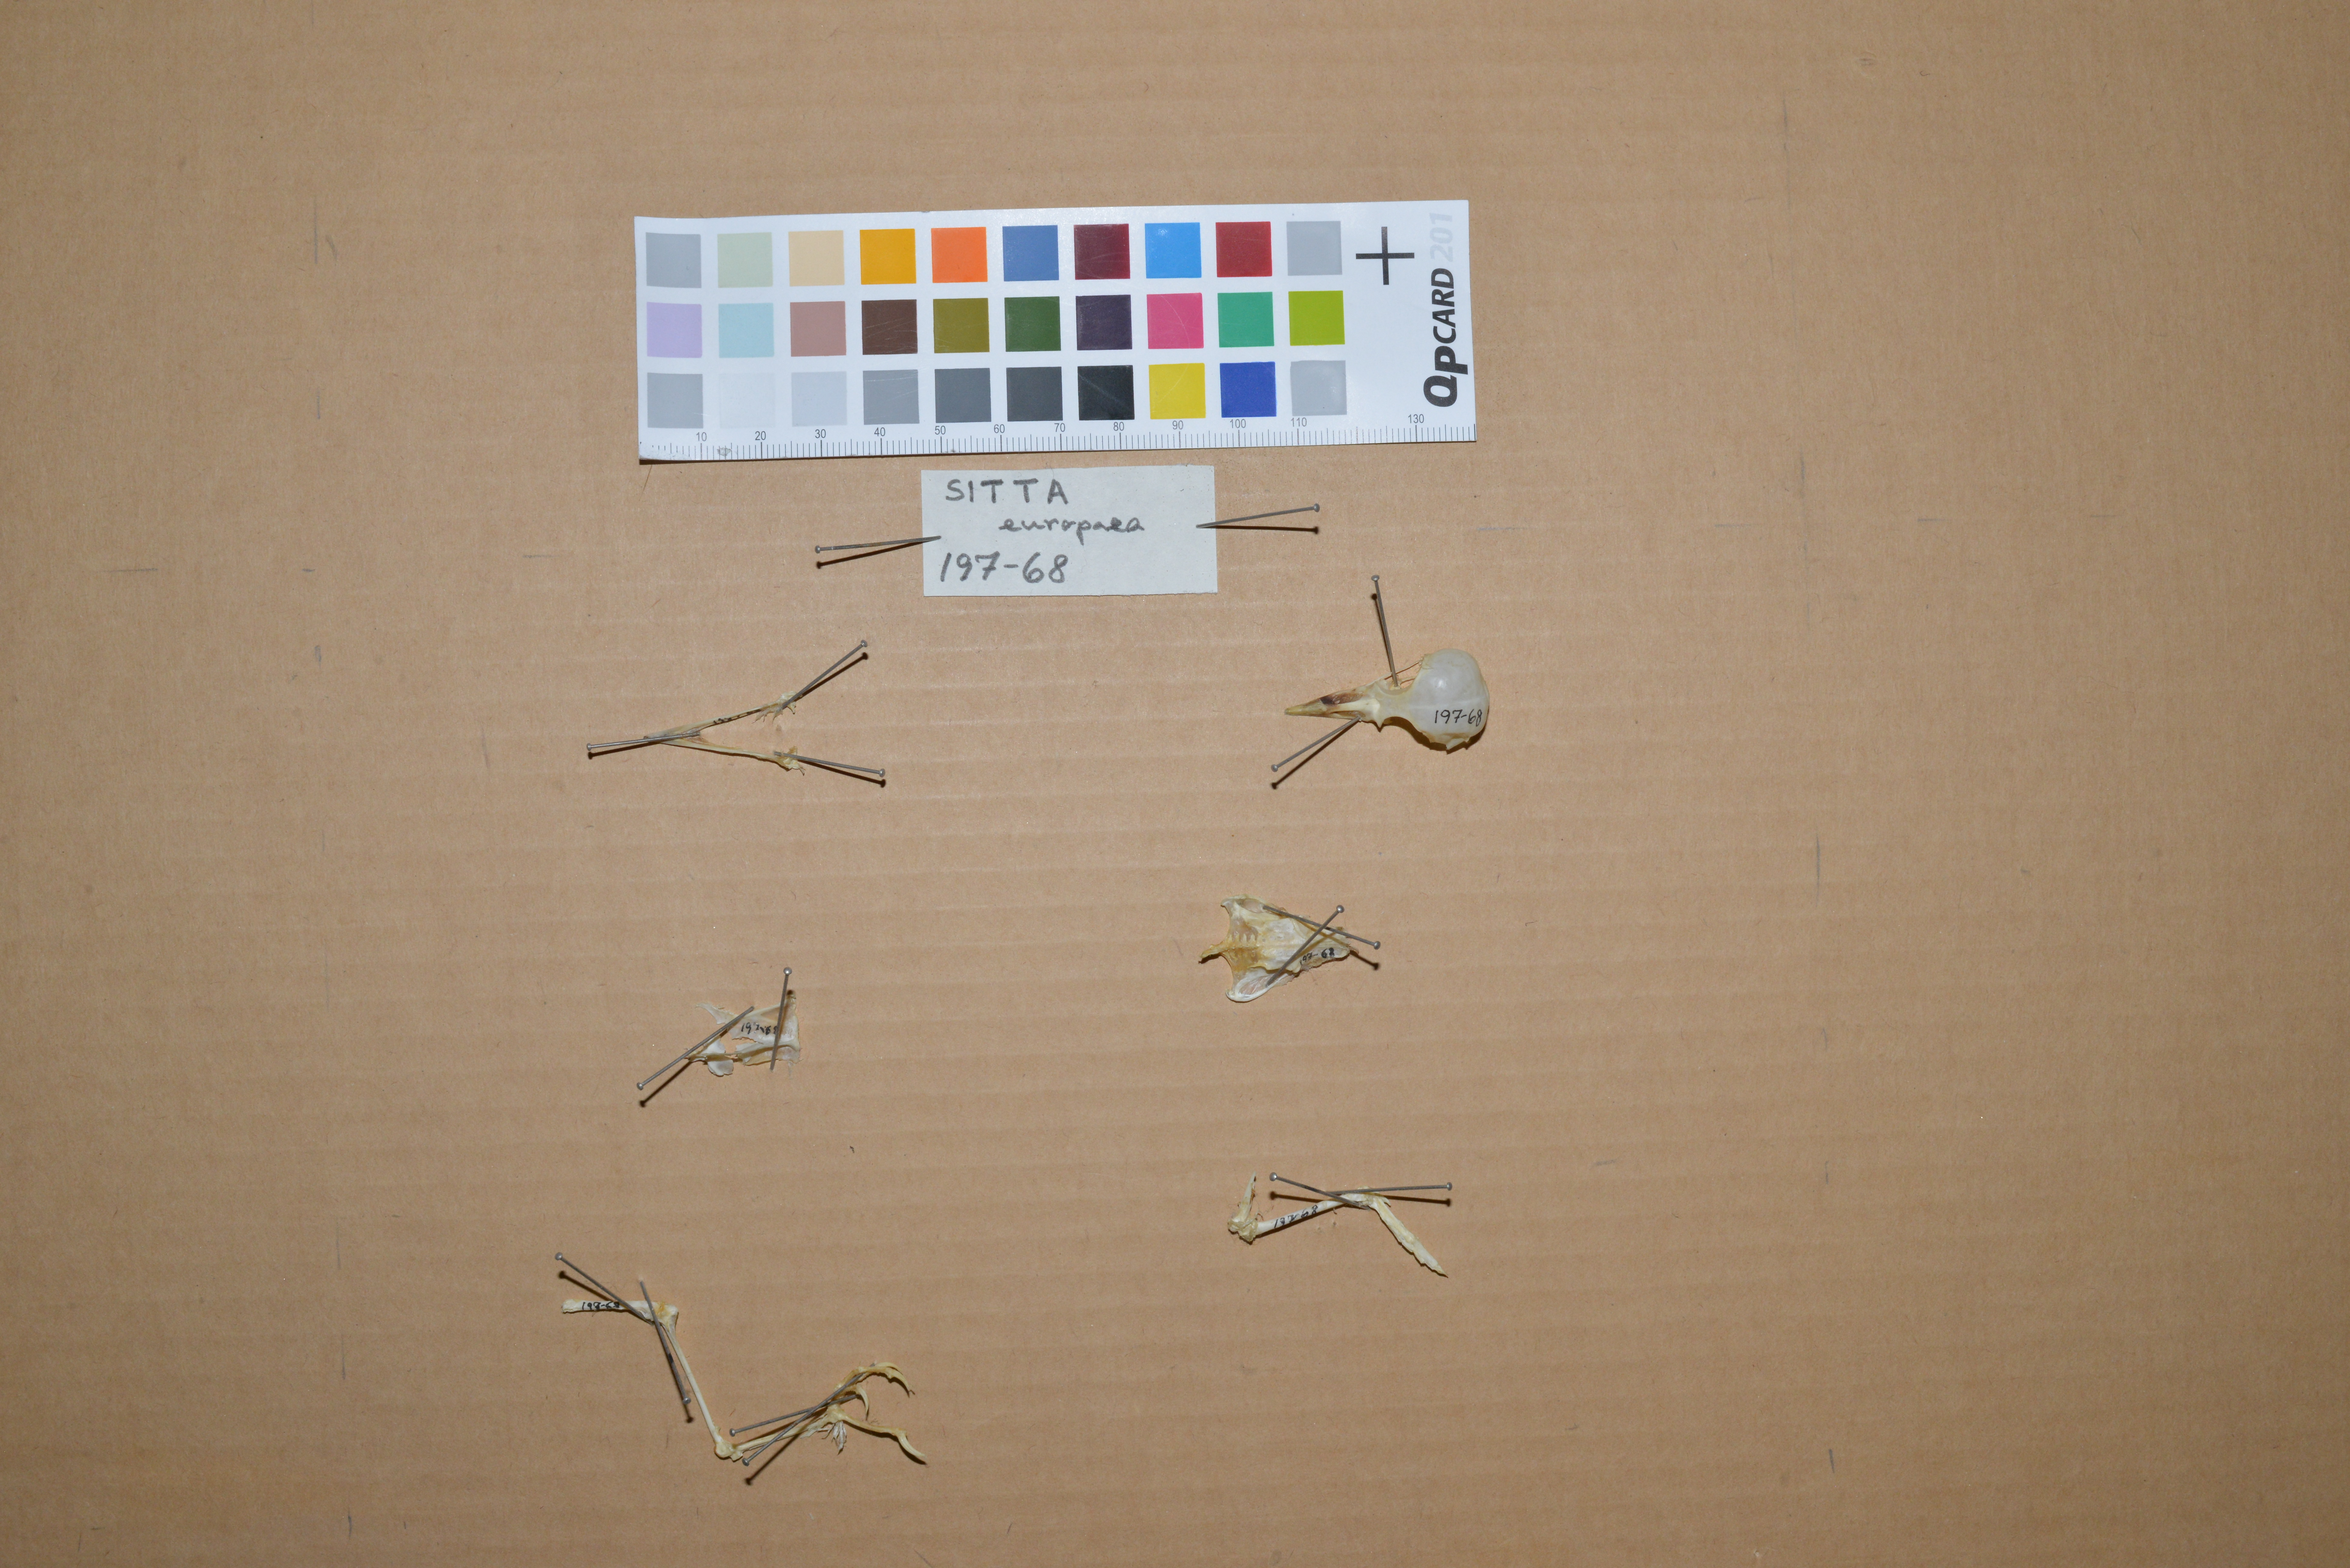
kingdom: Animalia
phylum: Chordata
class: Aves
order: Passeriformes
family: Sittidae
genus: Sitta
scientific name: Sitta europaea
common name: Eurasian nuthatch
